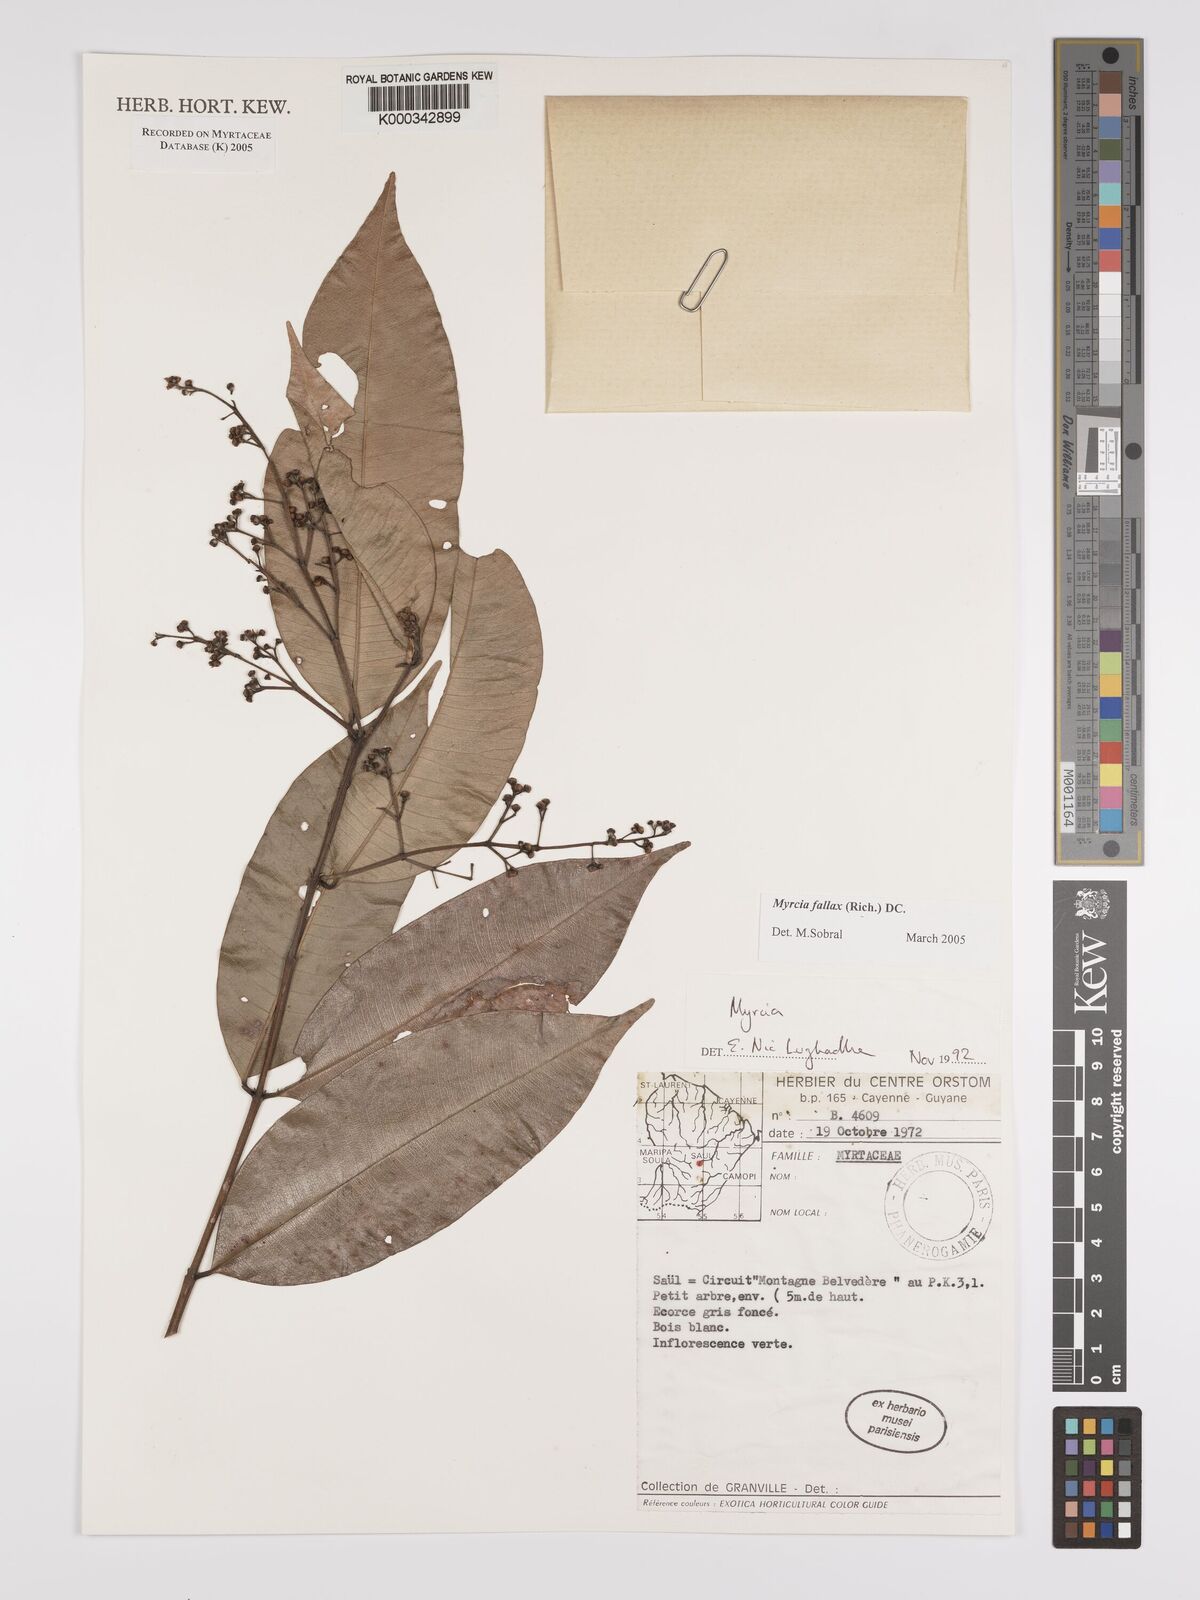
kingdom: Plantae
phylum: Tracheophyta
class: Magnoliopsida
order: Myrtales
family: Myrtaceae
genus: Myrcia
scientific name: Myrcia splendens
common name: Surinam cherry
